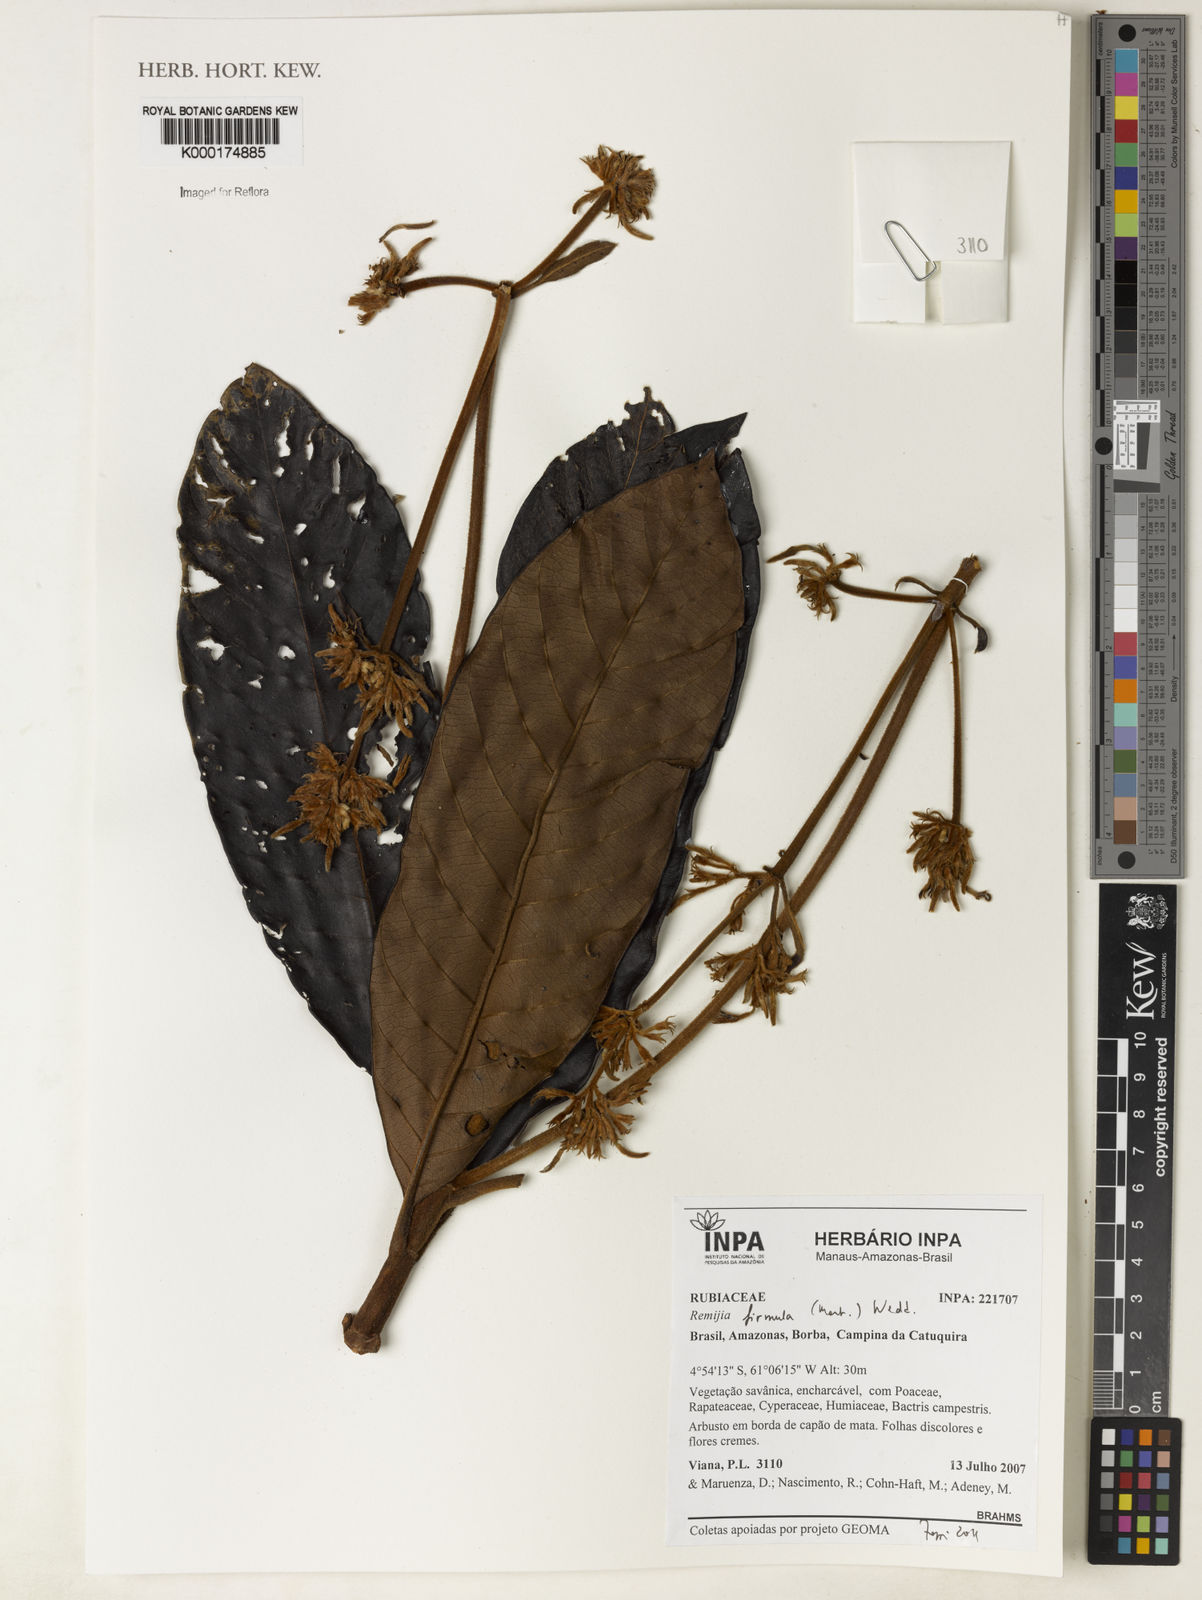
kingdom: Plantae
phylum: Tracheophyta
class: Magnoliopsida
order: Gentianales
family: Rubiaceae
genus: Remijia
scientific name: Remijia firmula
